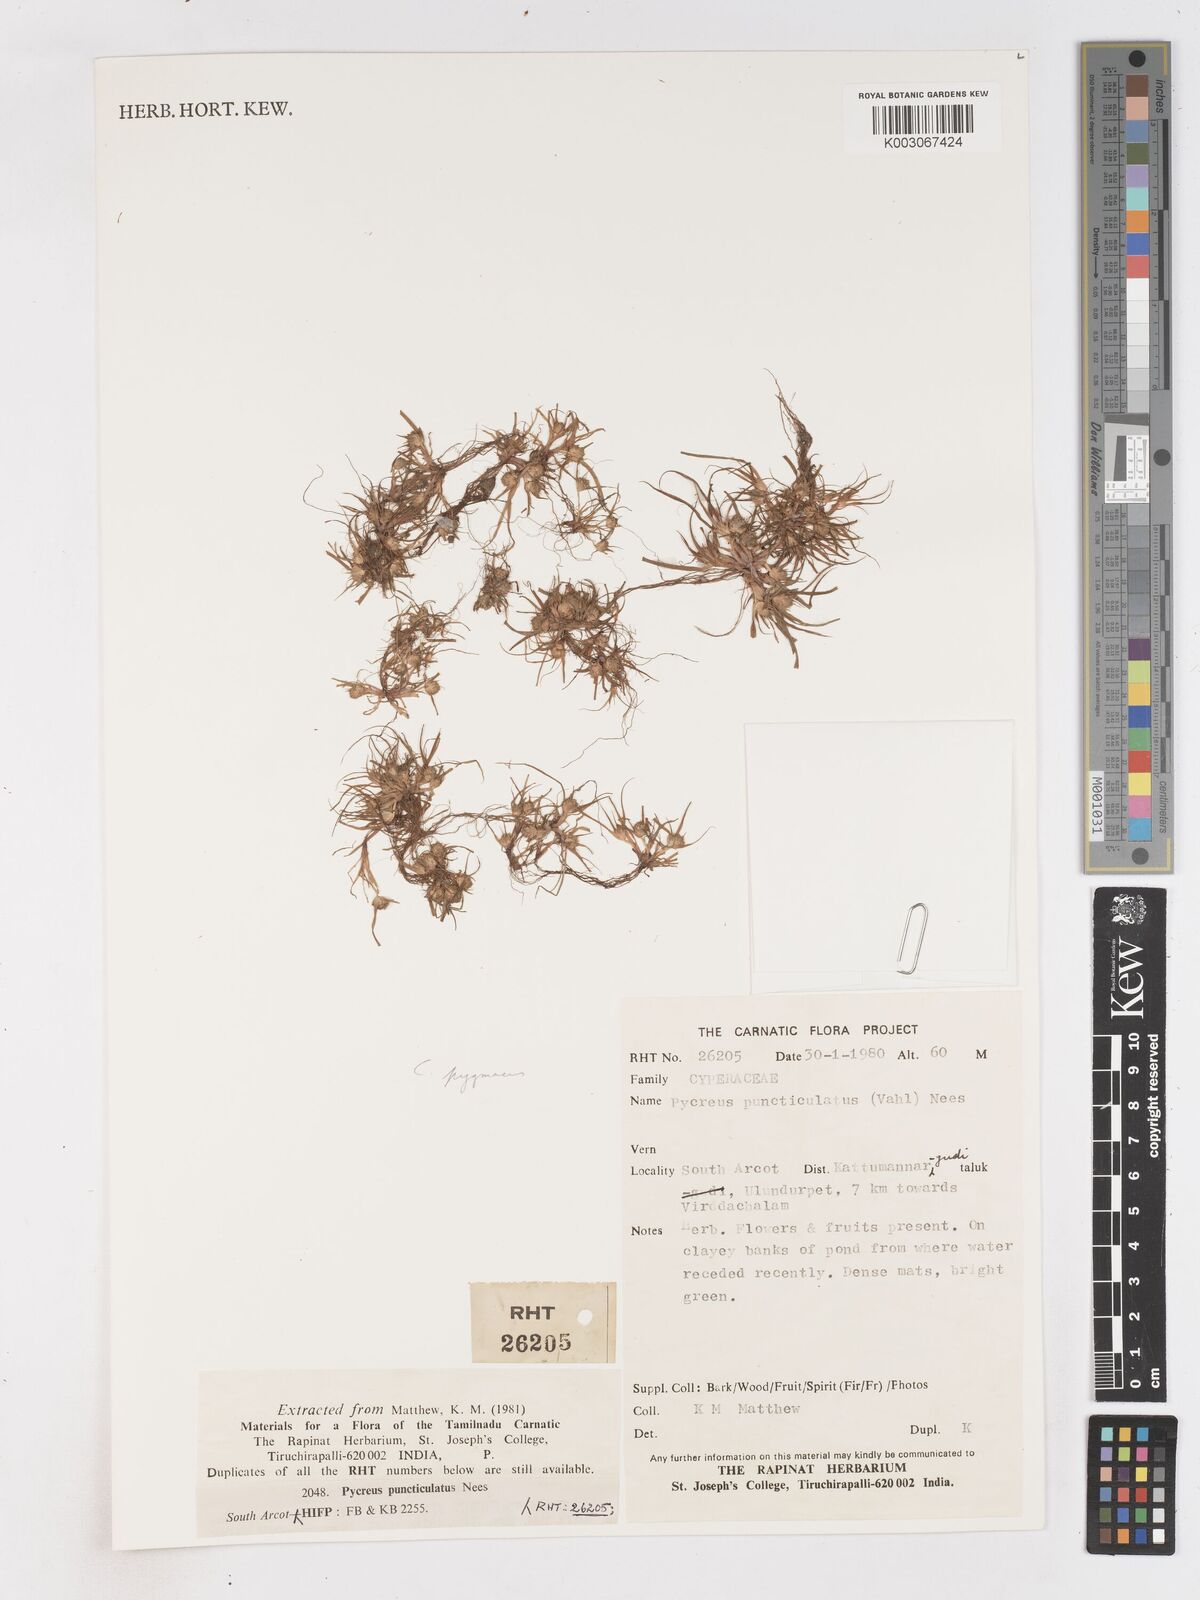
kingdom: Plantae
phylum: Tracheophyta
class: Liliopsida
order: Poales
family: Cyperaceae
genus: Cyperus
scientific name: Cyperus michelianus
